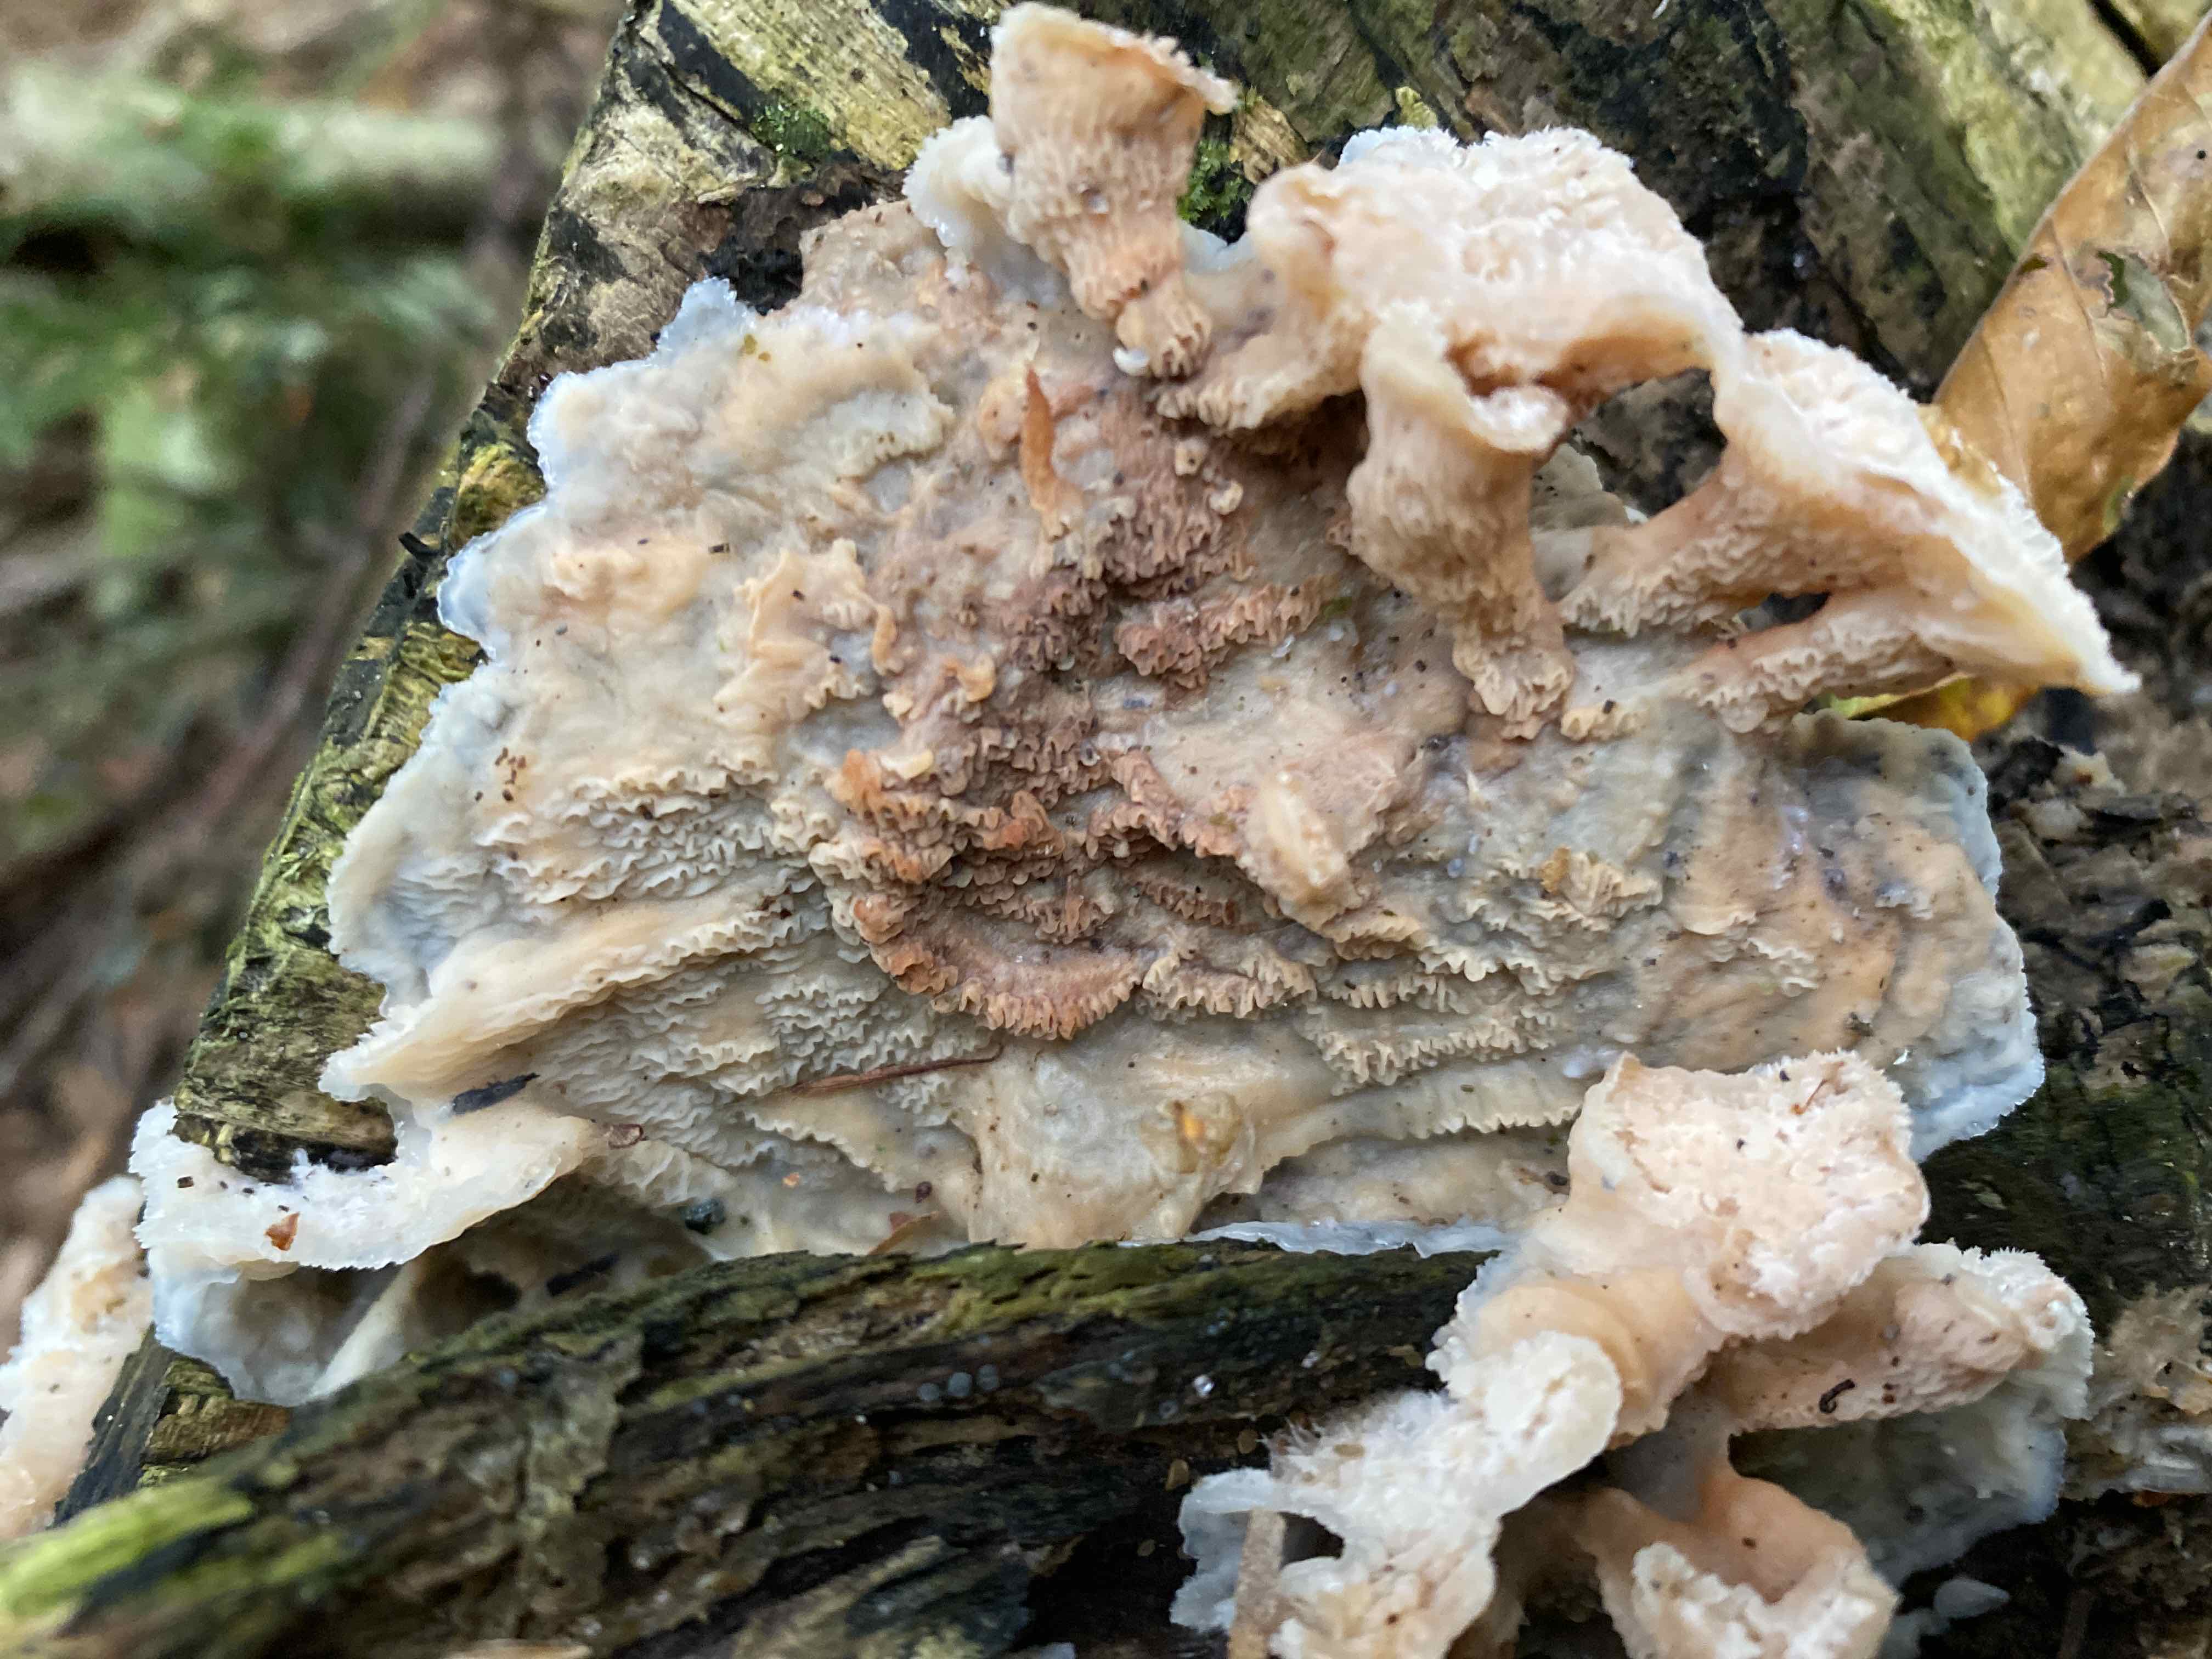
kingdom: Fungi
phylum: Basidiomycota
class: Agaricomycetes
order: Polyporales
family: Meruliaceae
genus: Phlebia
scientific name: Phlebia tremellosa
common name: bævrende åresvamp
